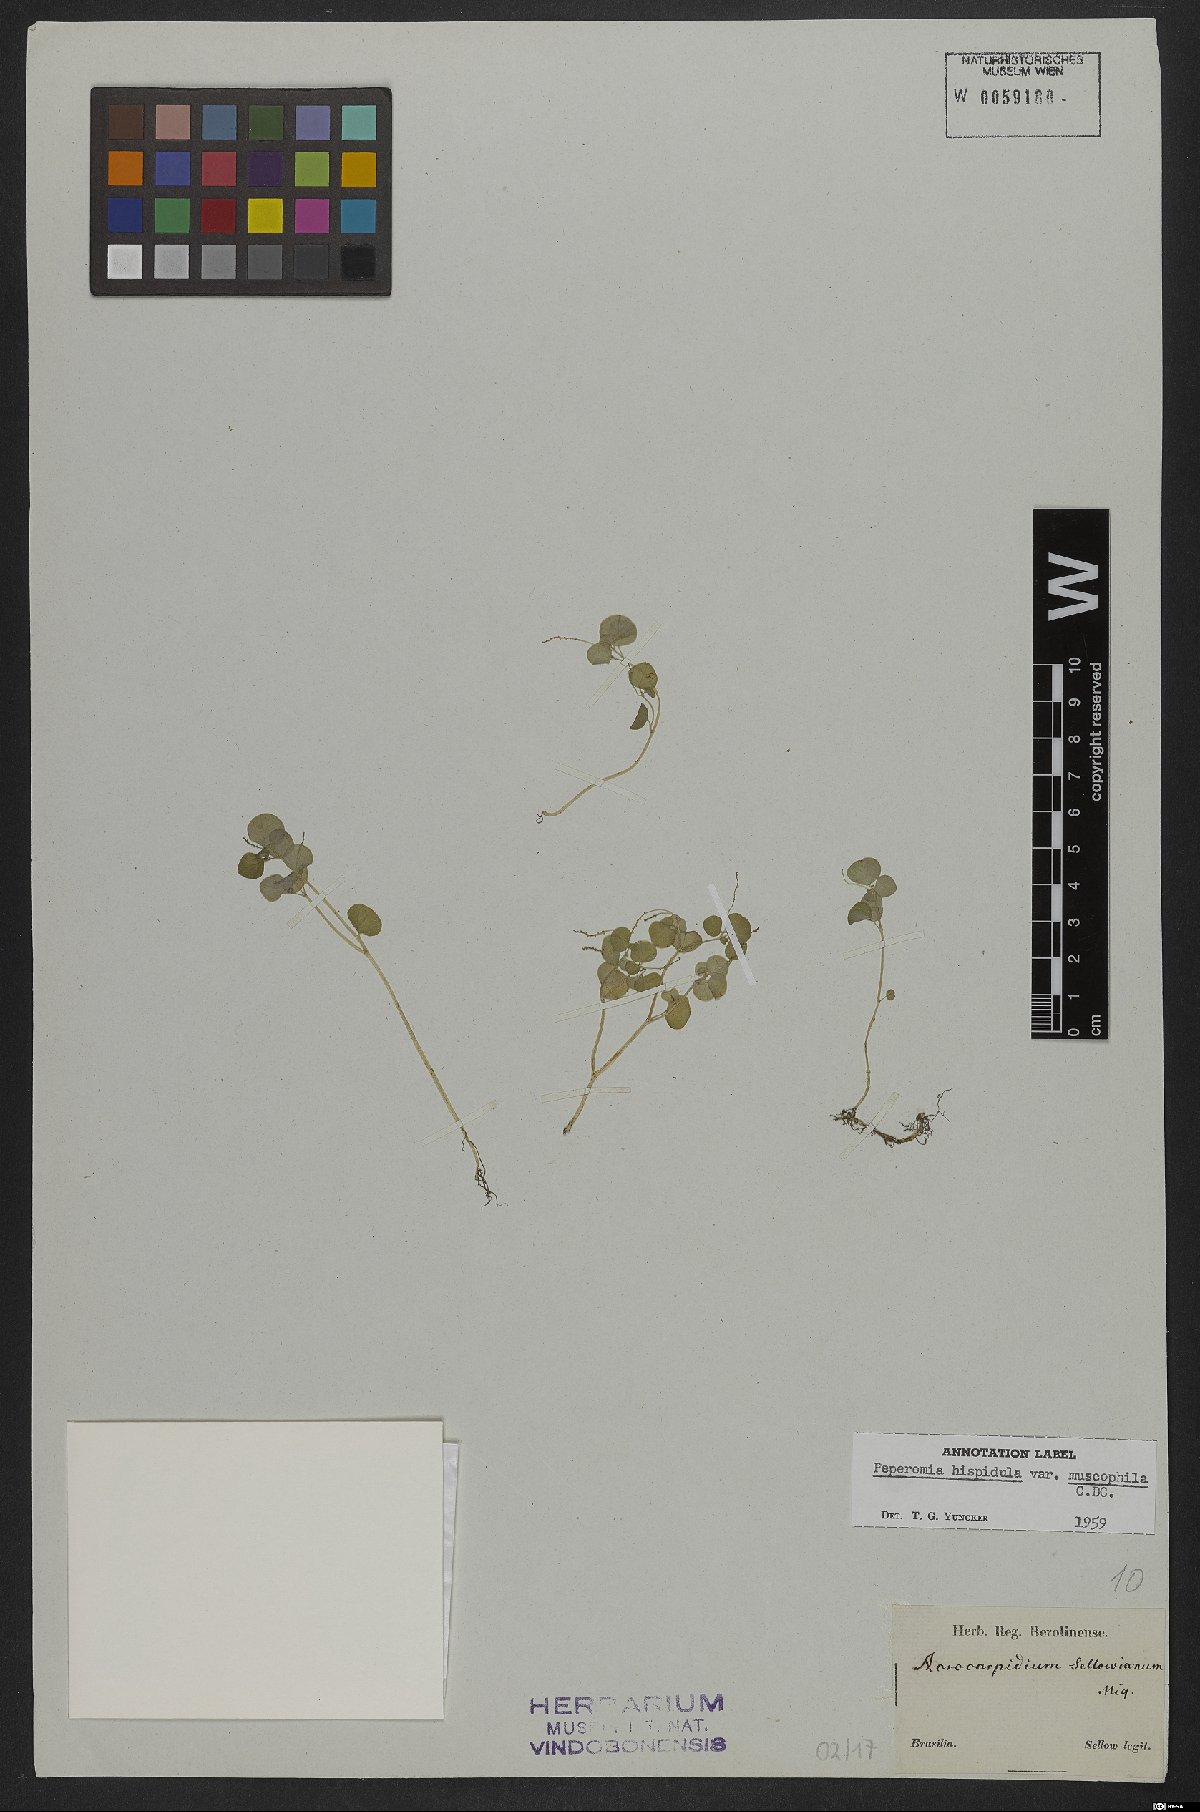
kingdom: Plantae
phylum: Tracheophyta
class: Magnoliopsida
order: Piperales
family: Piperaceae
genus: Peperomia
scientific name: Peperomia muscophila
